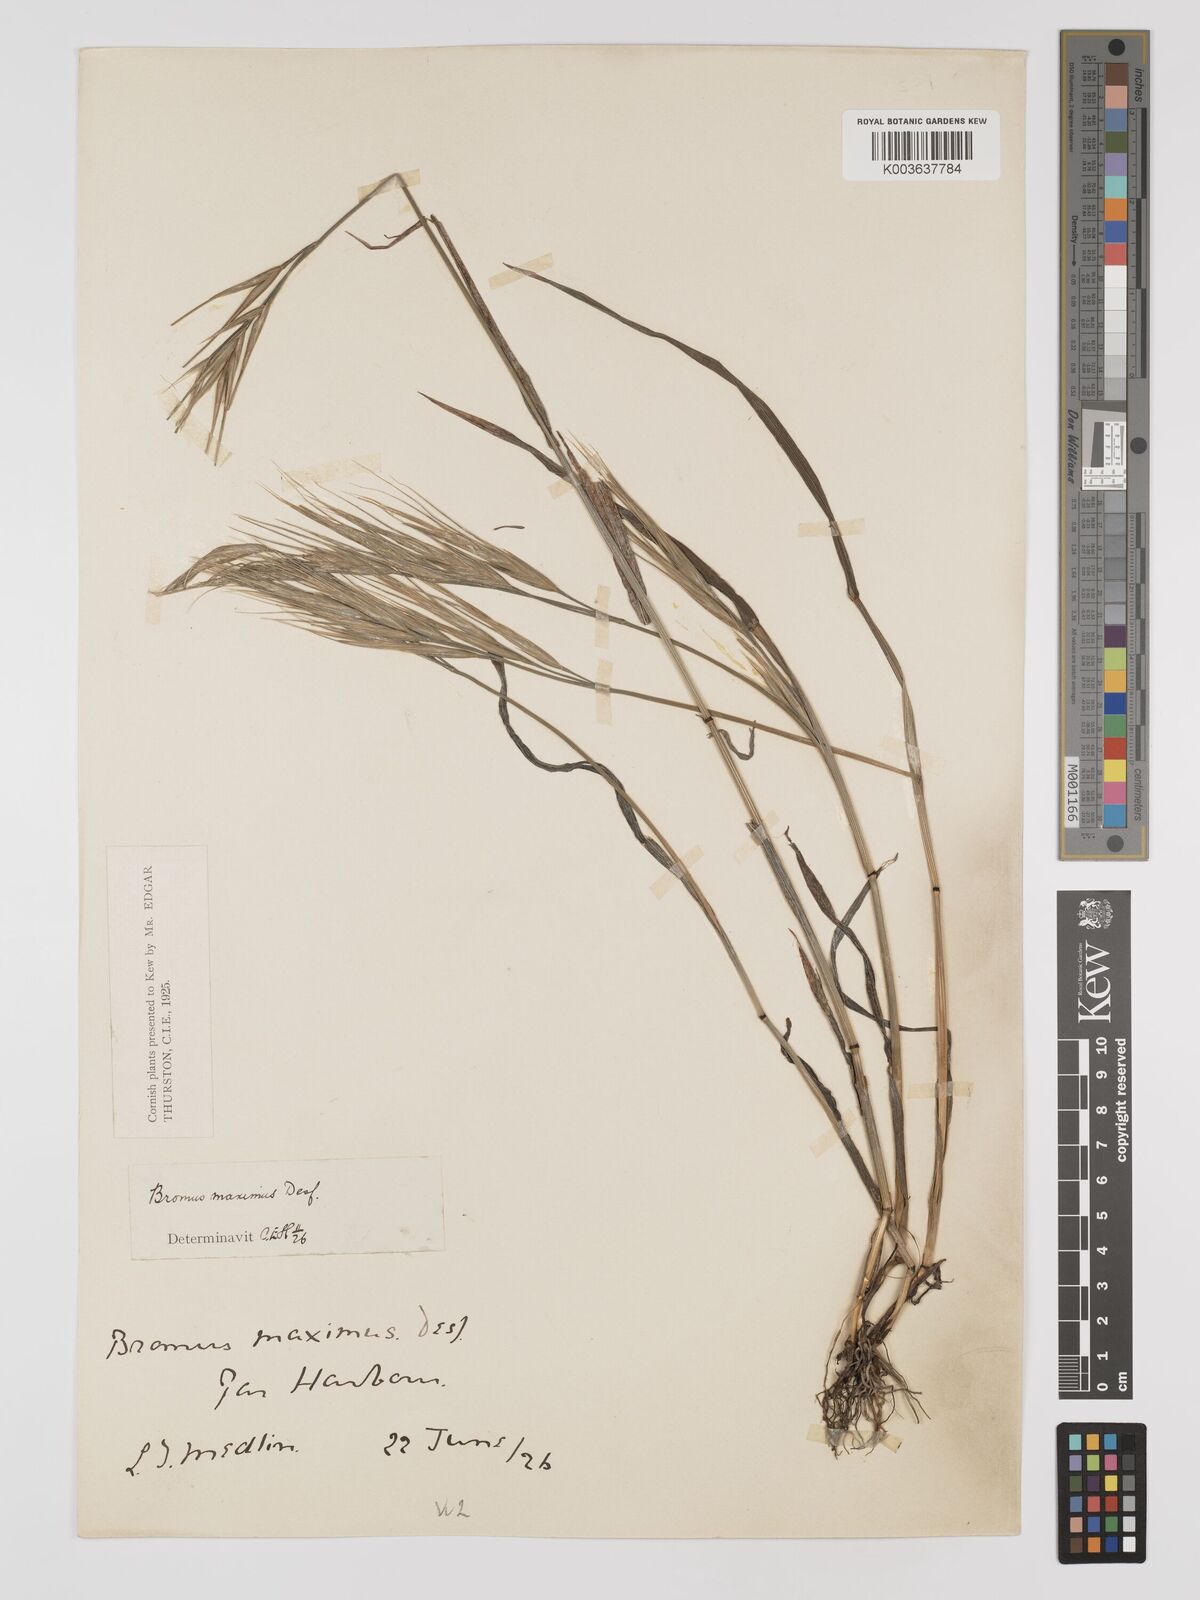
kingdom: Plantae
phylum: Tracheophyta
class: Liliopsida
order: Poales
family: Poaceae
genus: Bromus
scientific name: Bromus
